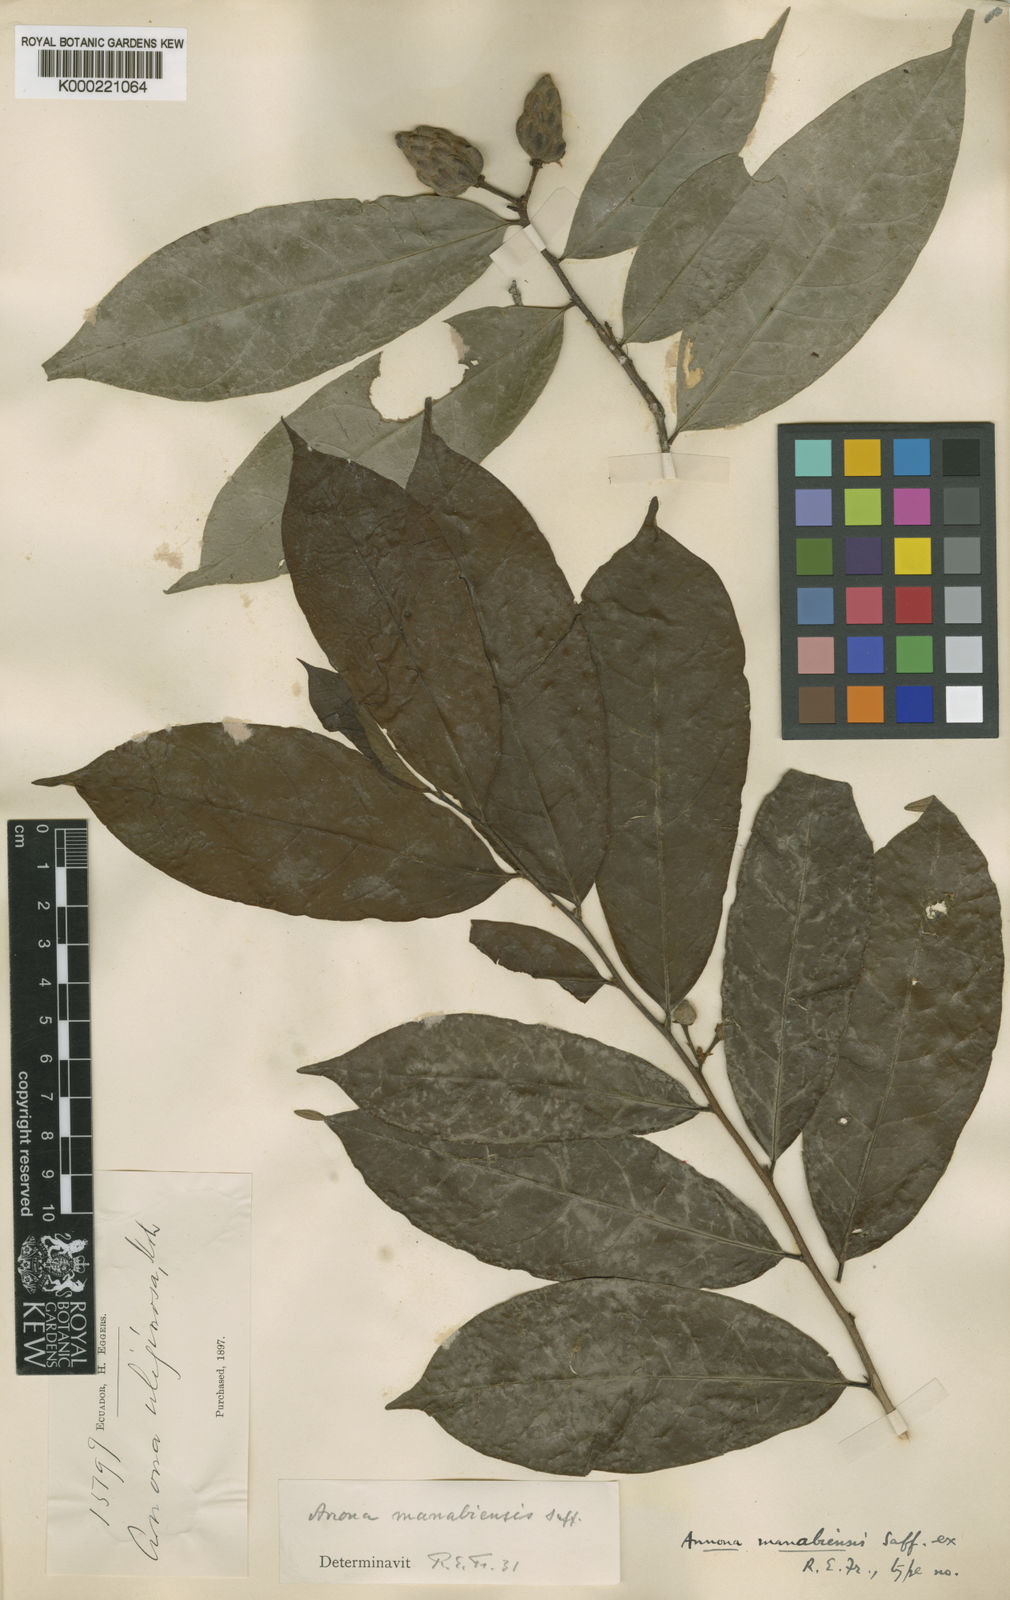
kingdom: Plantae
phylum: Tracheophyta
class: Magnoliopsida
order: Magnoliales
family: Annonaceae
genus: Annona
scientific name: Annona manabiensis
